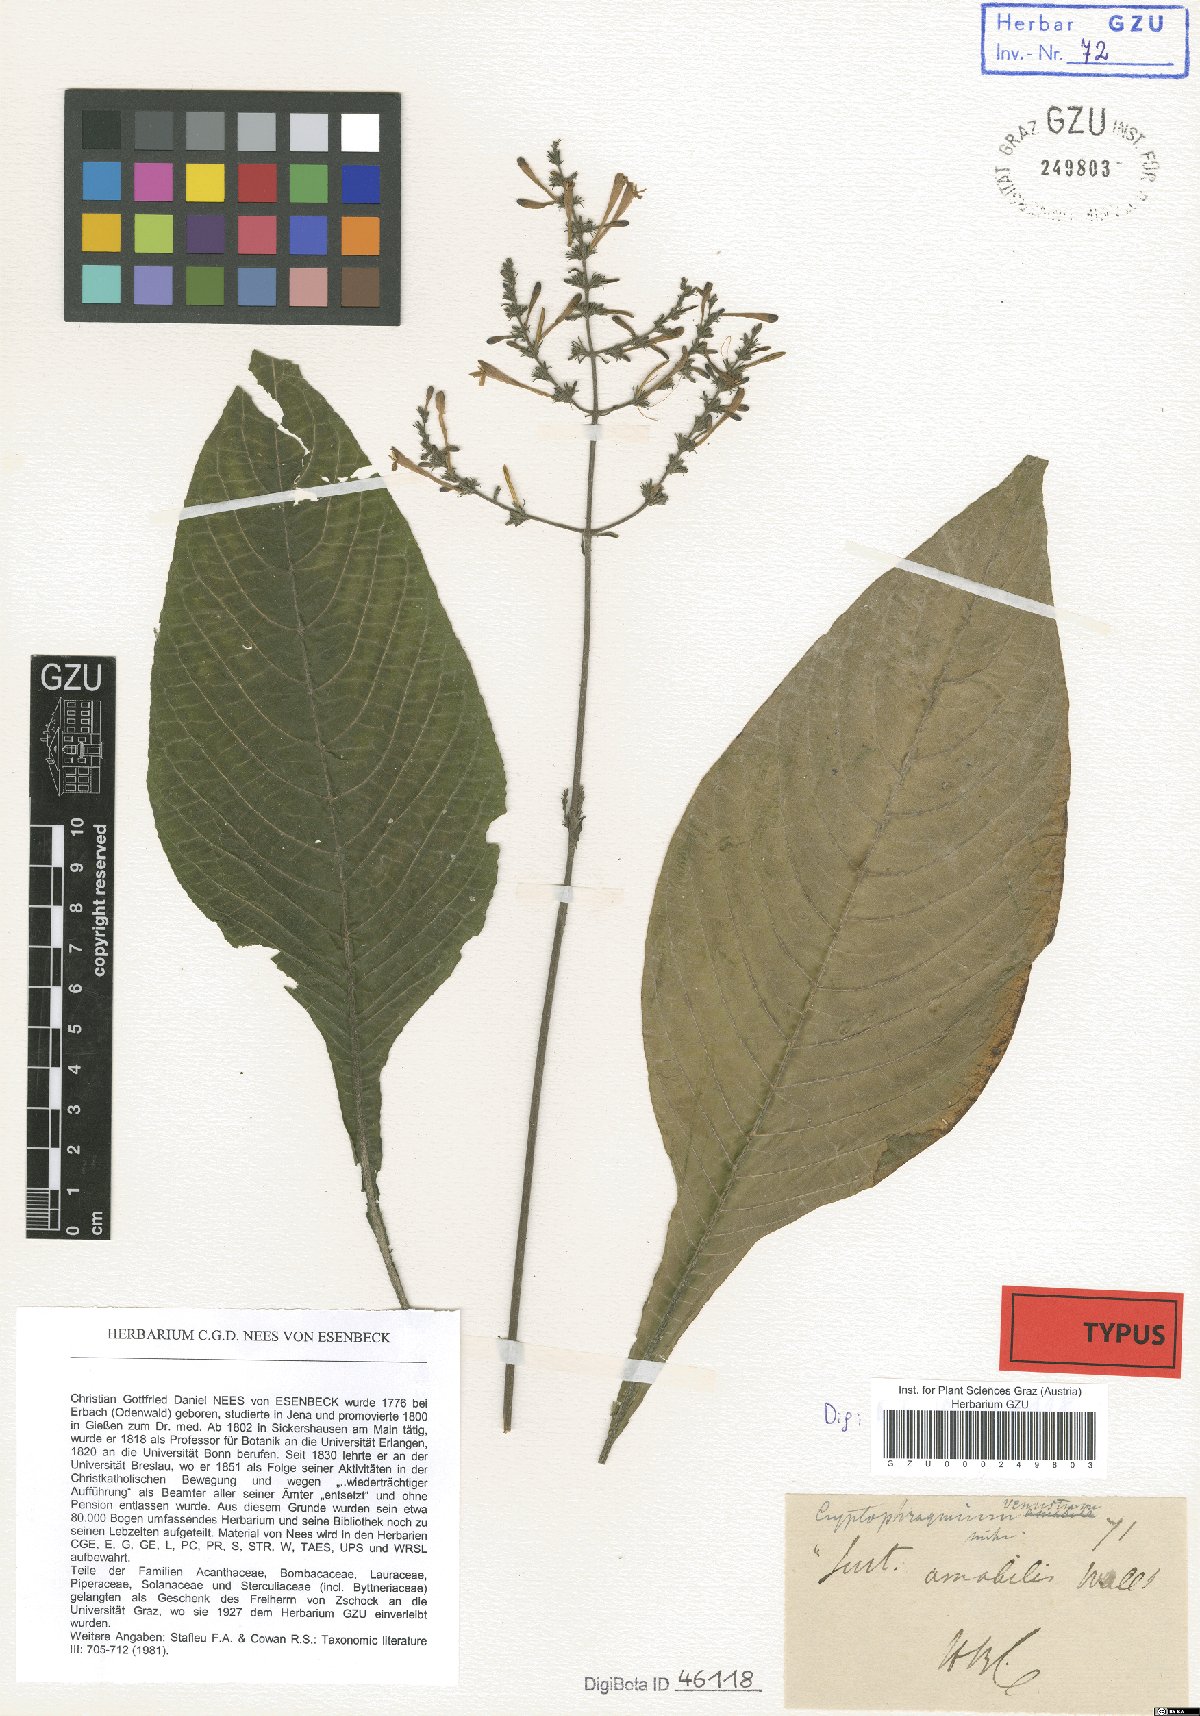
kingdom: Plantae
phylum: Tracheophyta
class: Magnoliopsida
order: Lamiales
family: Acanthaceae
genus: Gymnostachyum
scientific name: Gymnostachyum venustum
